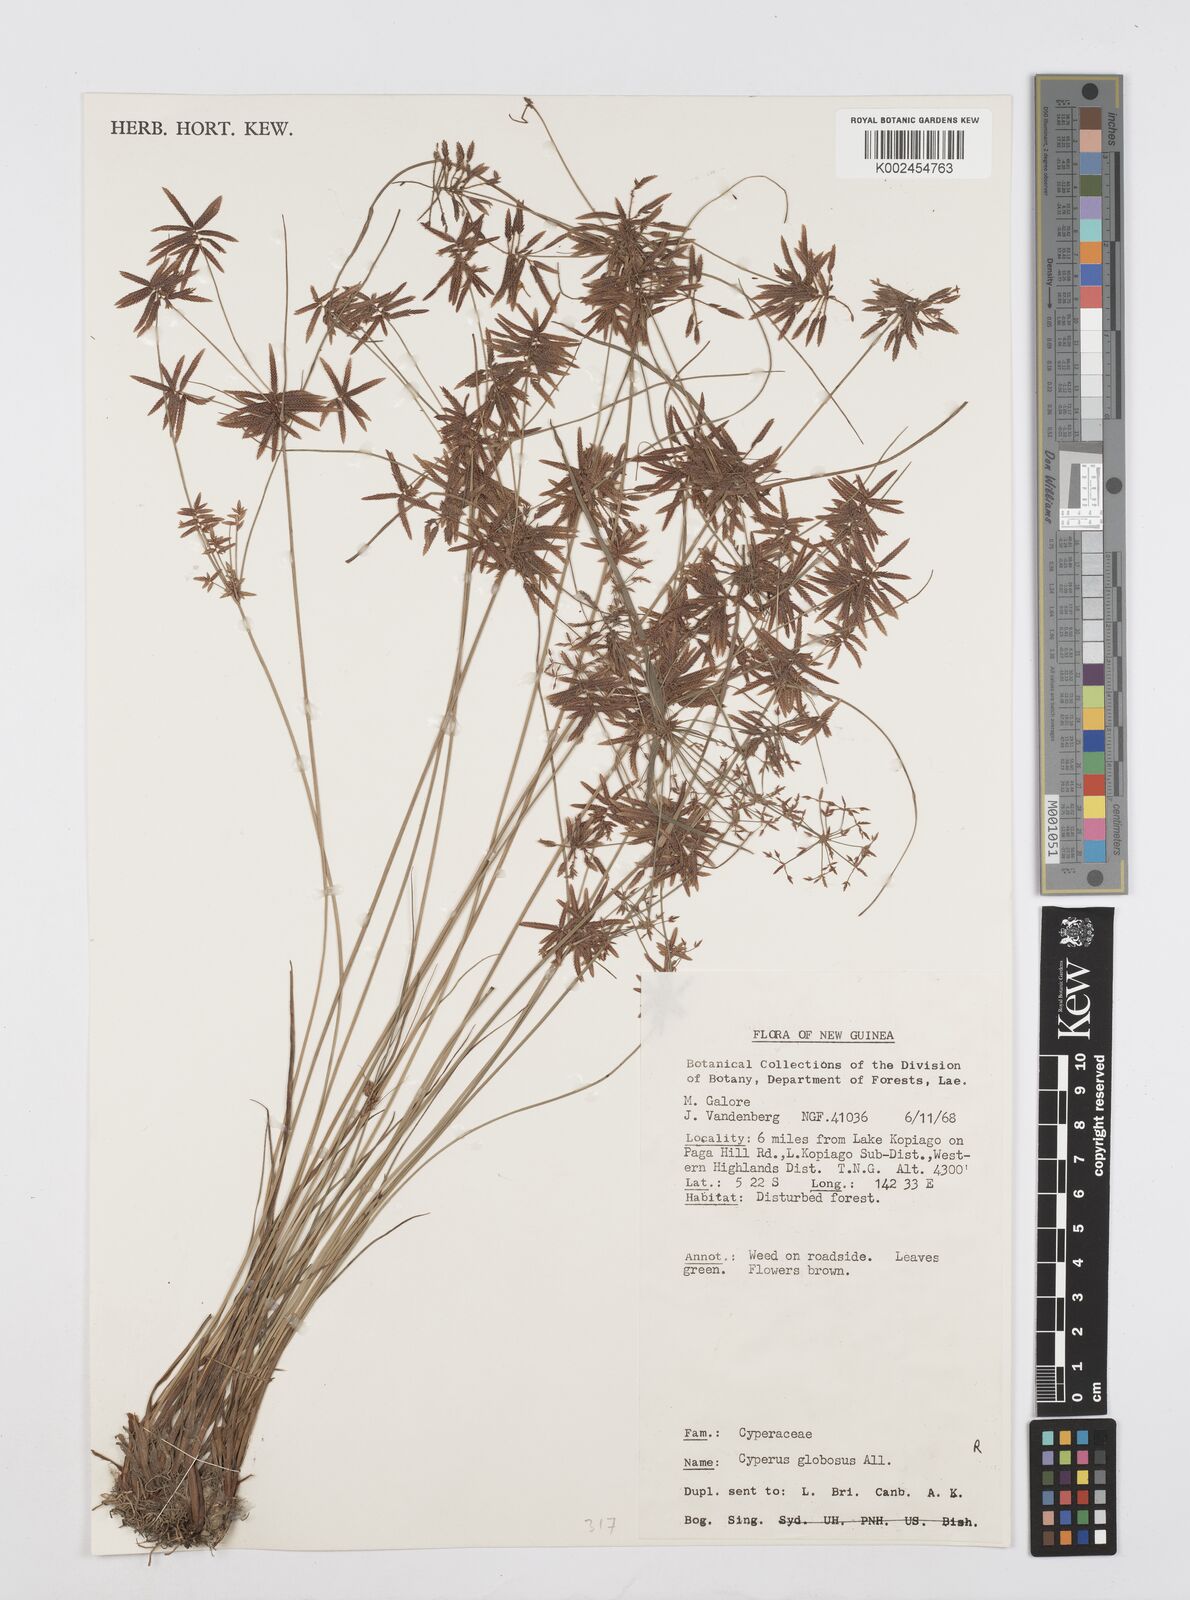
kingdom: Plantae
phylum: Tracheophyta
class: Liliopsida
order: Poales
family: Cyperaceae
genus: Cyperus
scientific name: Cyperus flavidus
